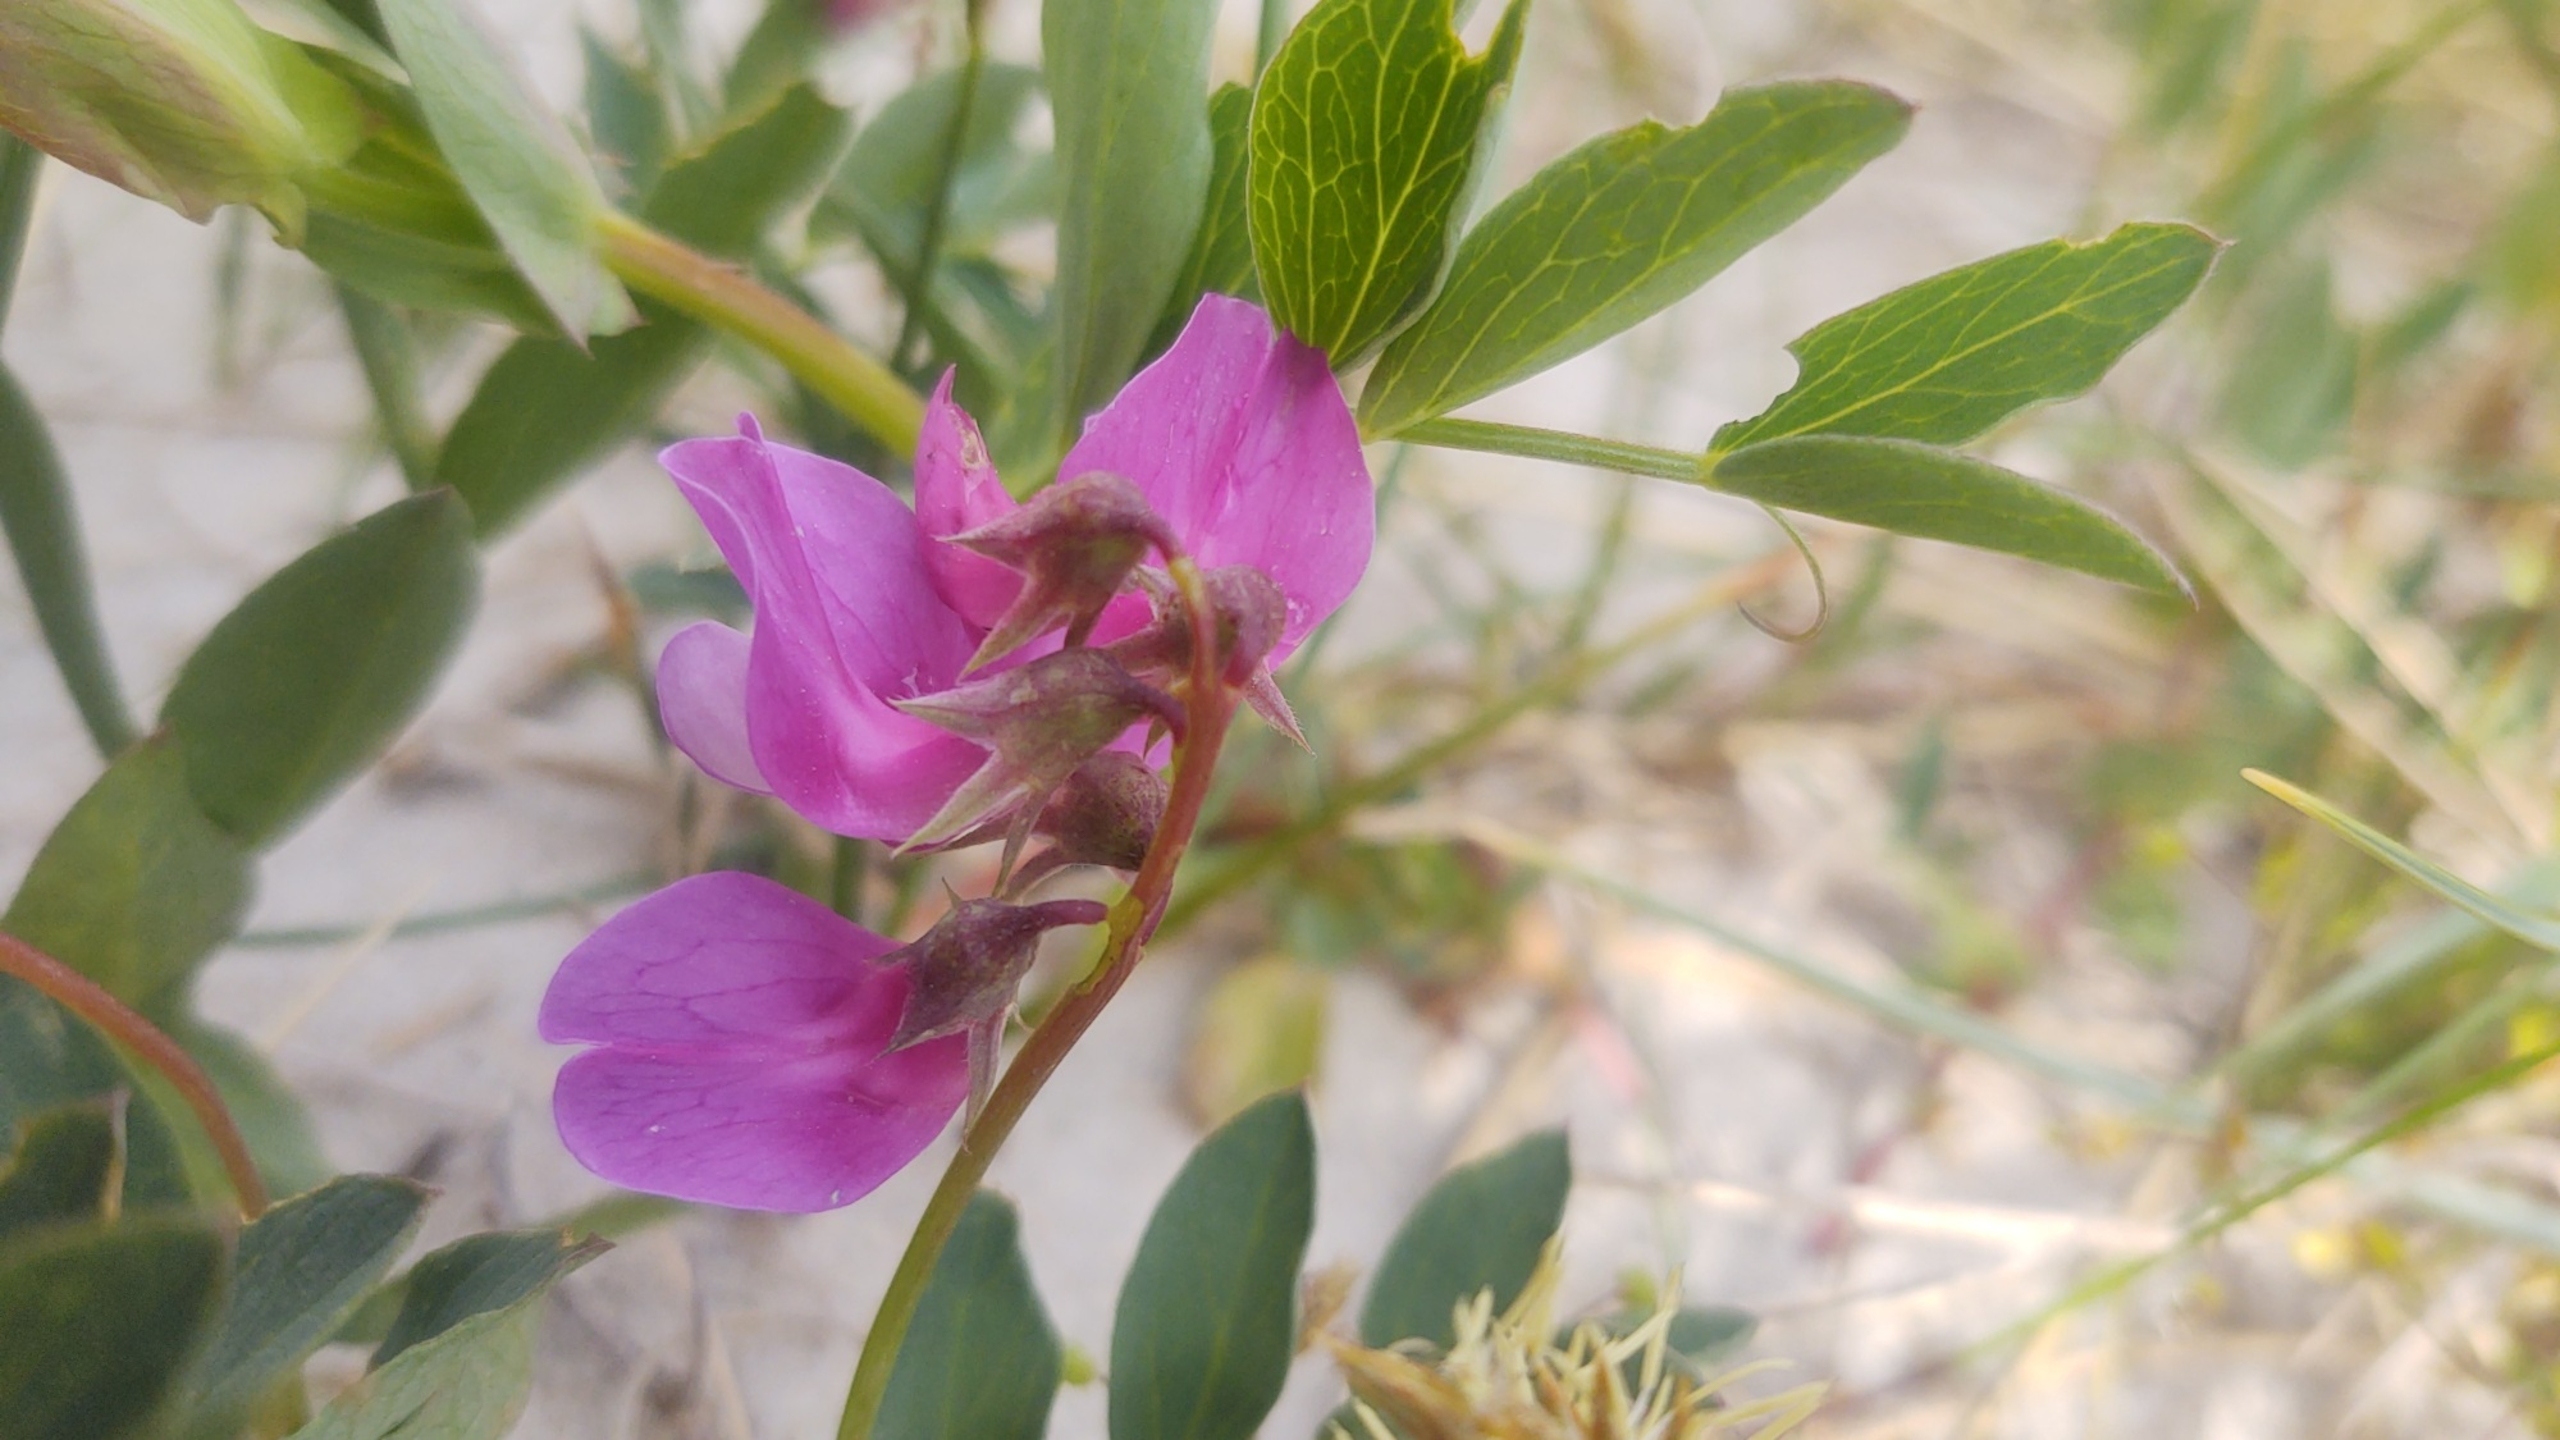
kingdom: Plantae
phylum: Tracheophyta
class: Magnoliopsida
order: Fabales
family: Fabaceae
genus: Lathyrus
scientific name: Lathyrus japonicus
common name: Klit-fladbælg
